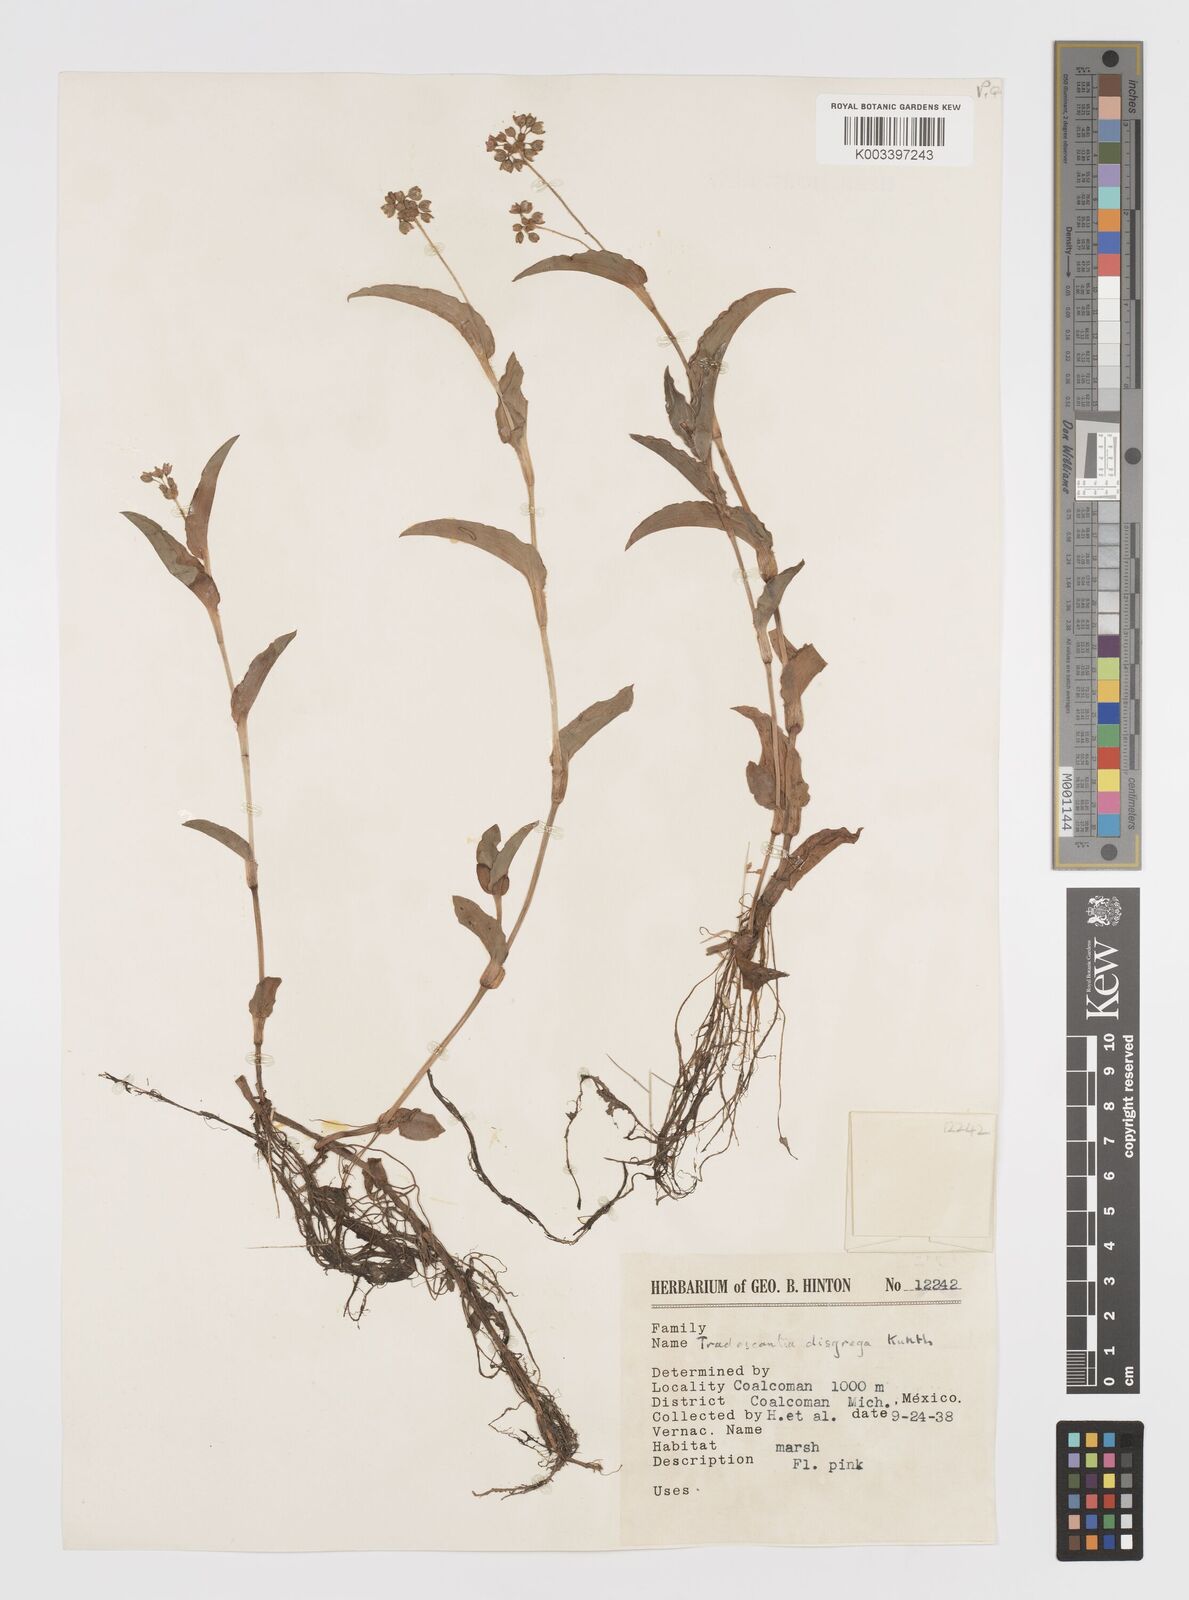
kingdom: Plantae
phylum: Tracheophyta
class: Liliopsida
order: Commelinales
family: Commelinaceae
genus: Callisia
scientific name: Callisia disgrega
